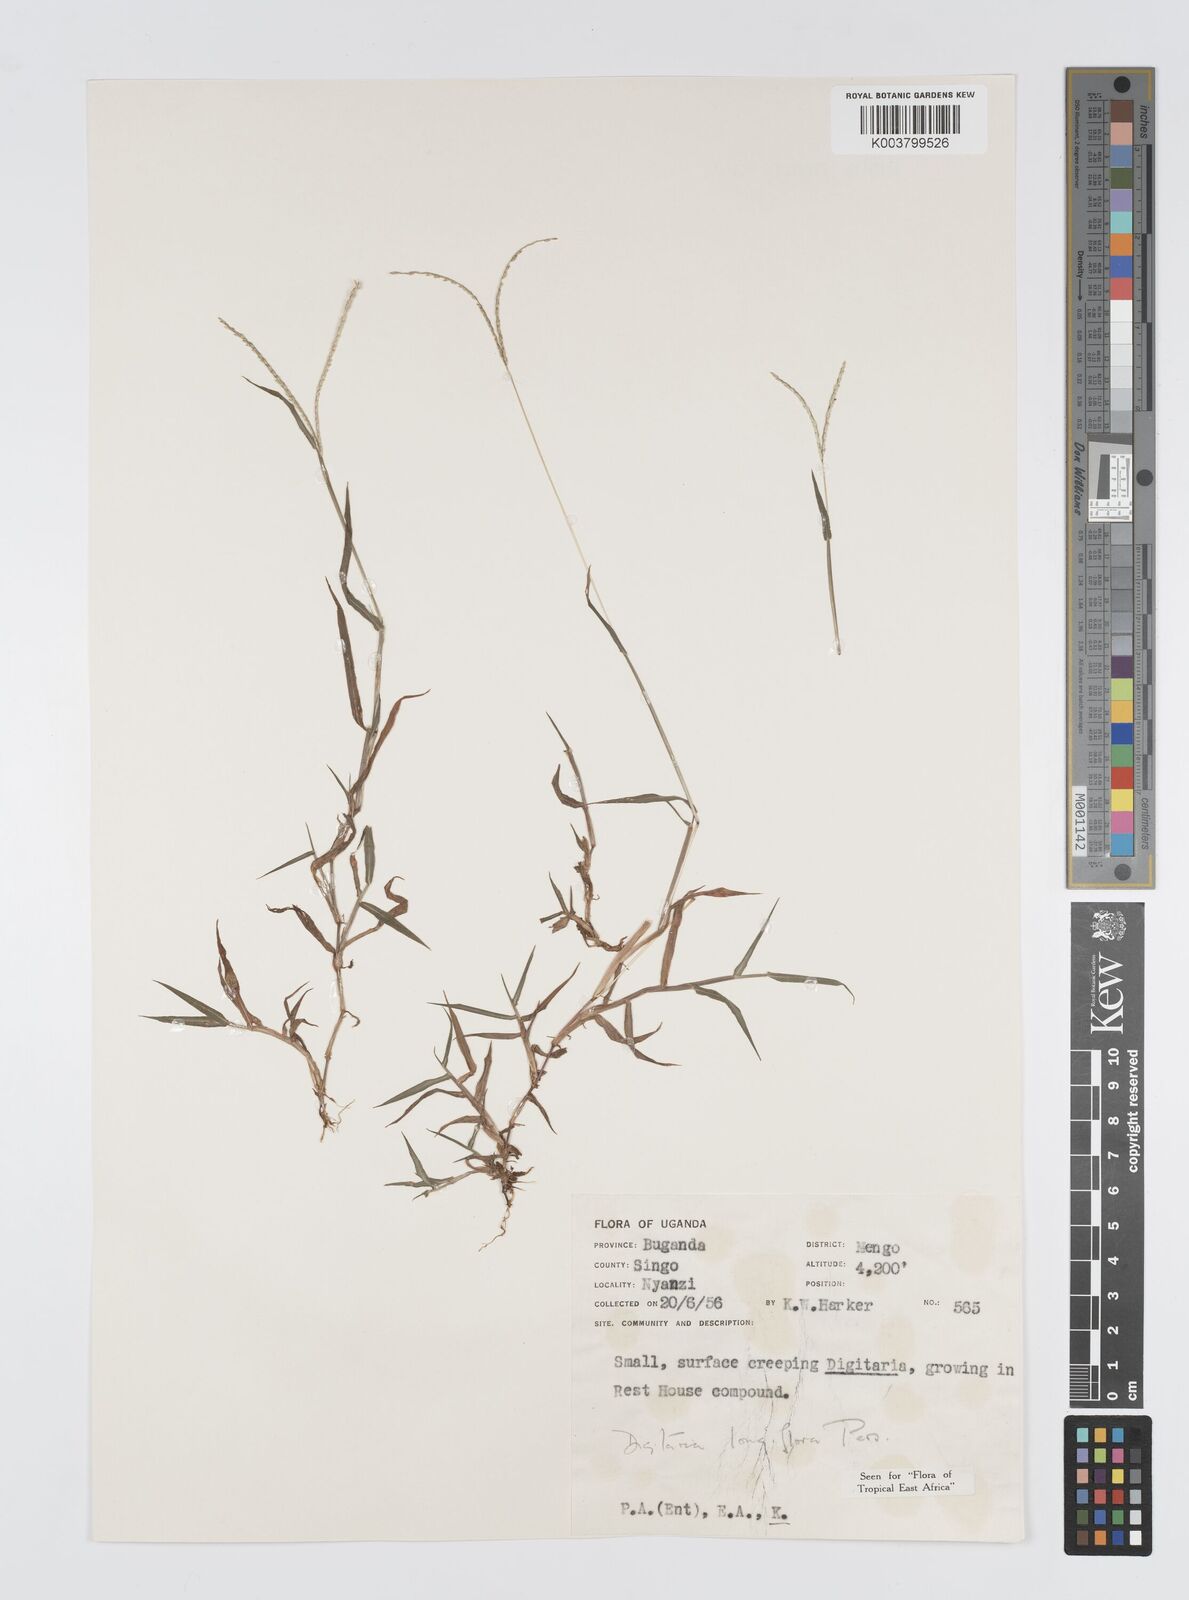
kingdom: Plantae
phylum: Tracheophyta
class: Liliopsida
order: Poales
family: Poaceae
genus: Digitaria
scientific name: Digitaria longiflora
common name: Wire crabgrass
